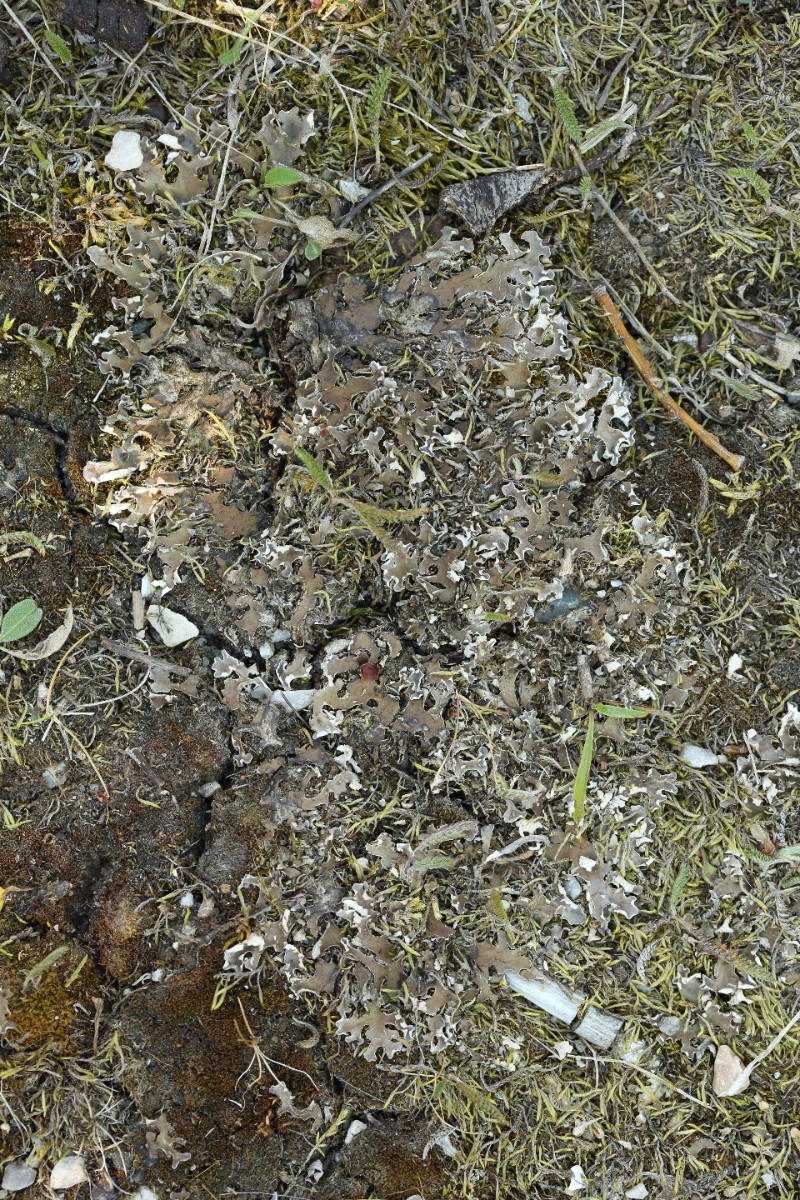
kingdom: Fungi
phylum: Ascomycota
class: Lecanoromycetes
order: Peltigerales
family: Peltigeraceae
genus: Peltigera
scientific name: Peltigera didactyla
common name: liden skjoldlav
